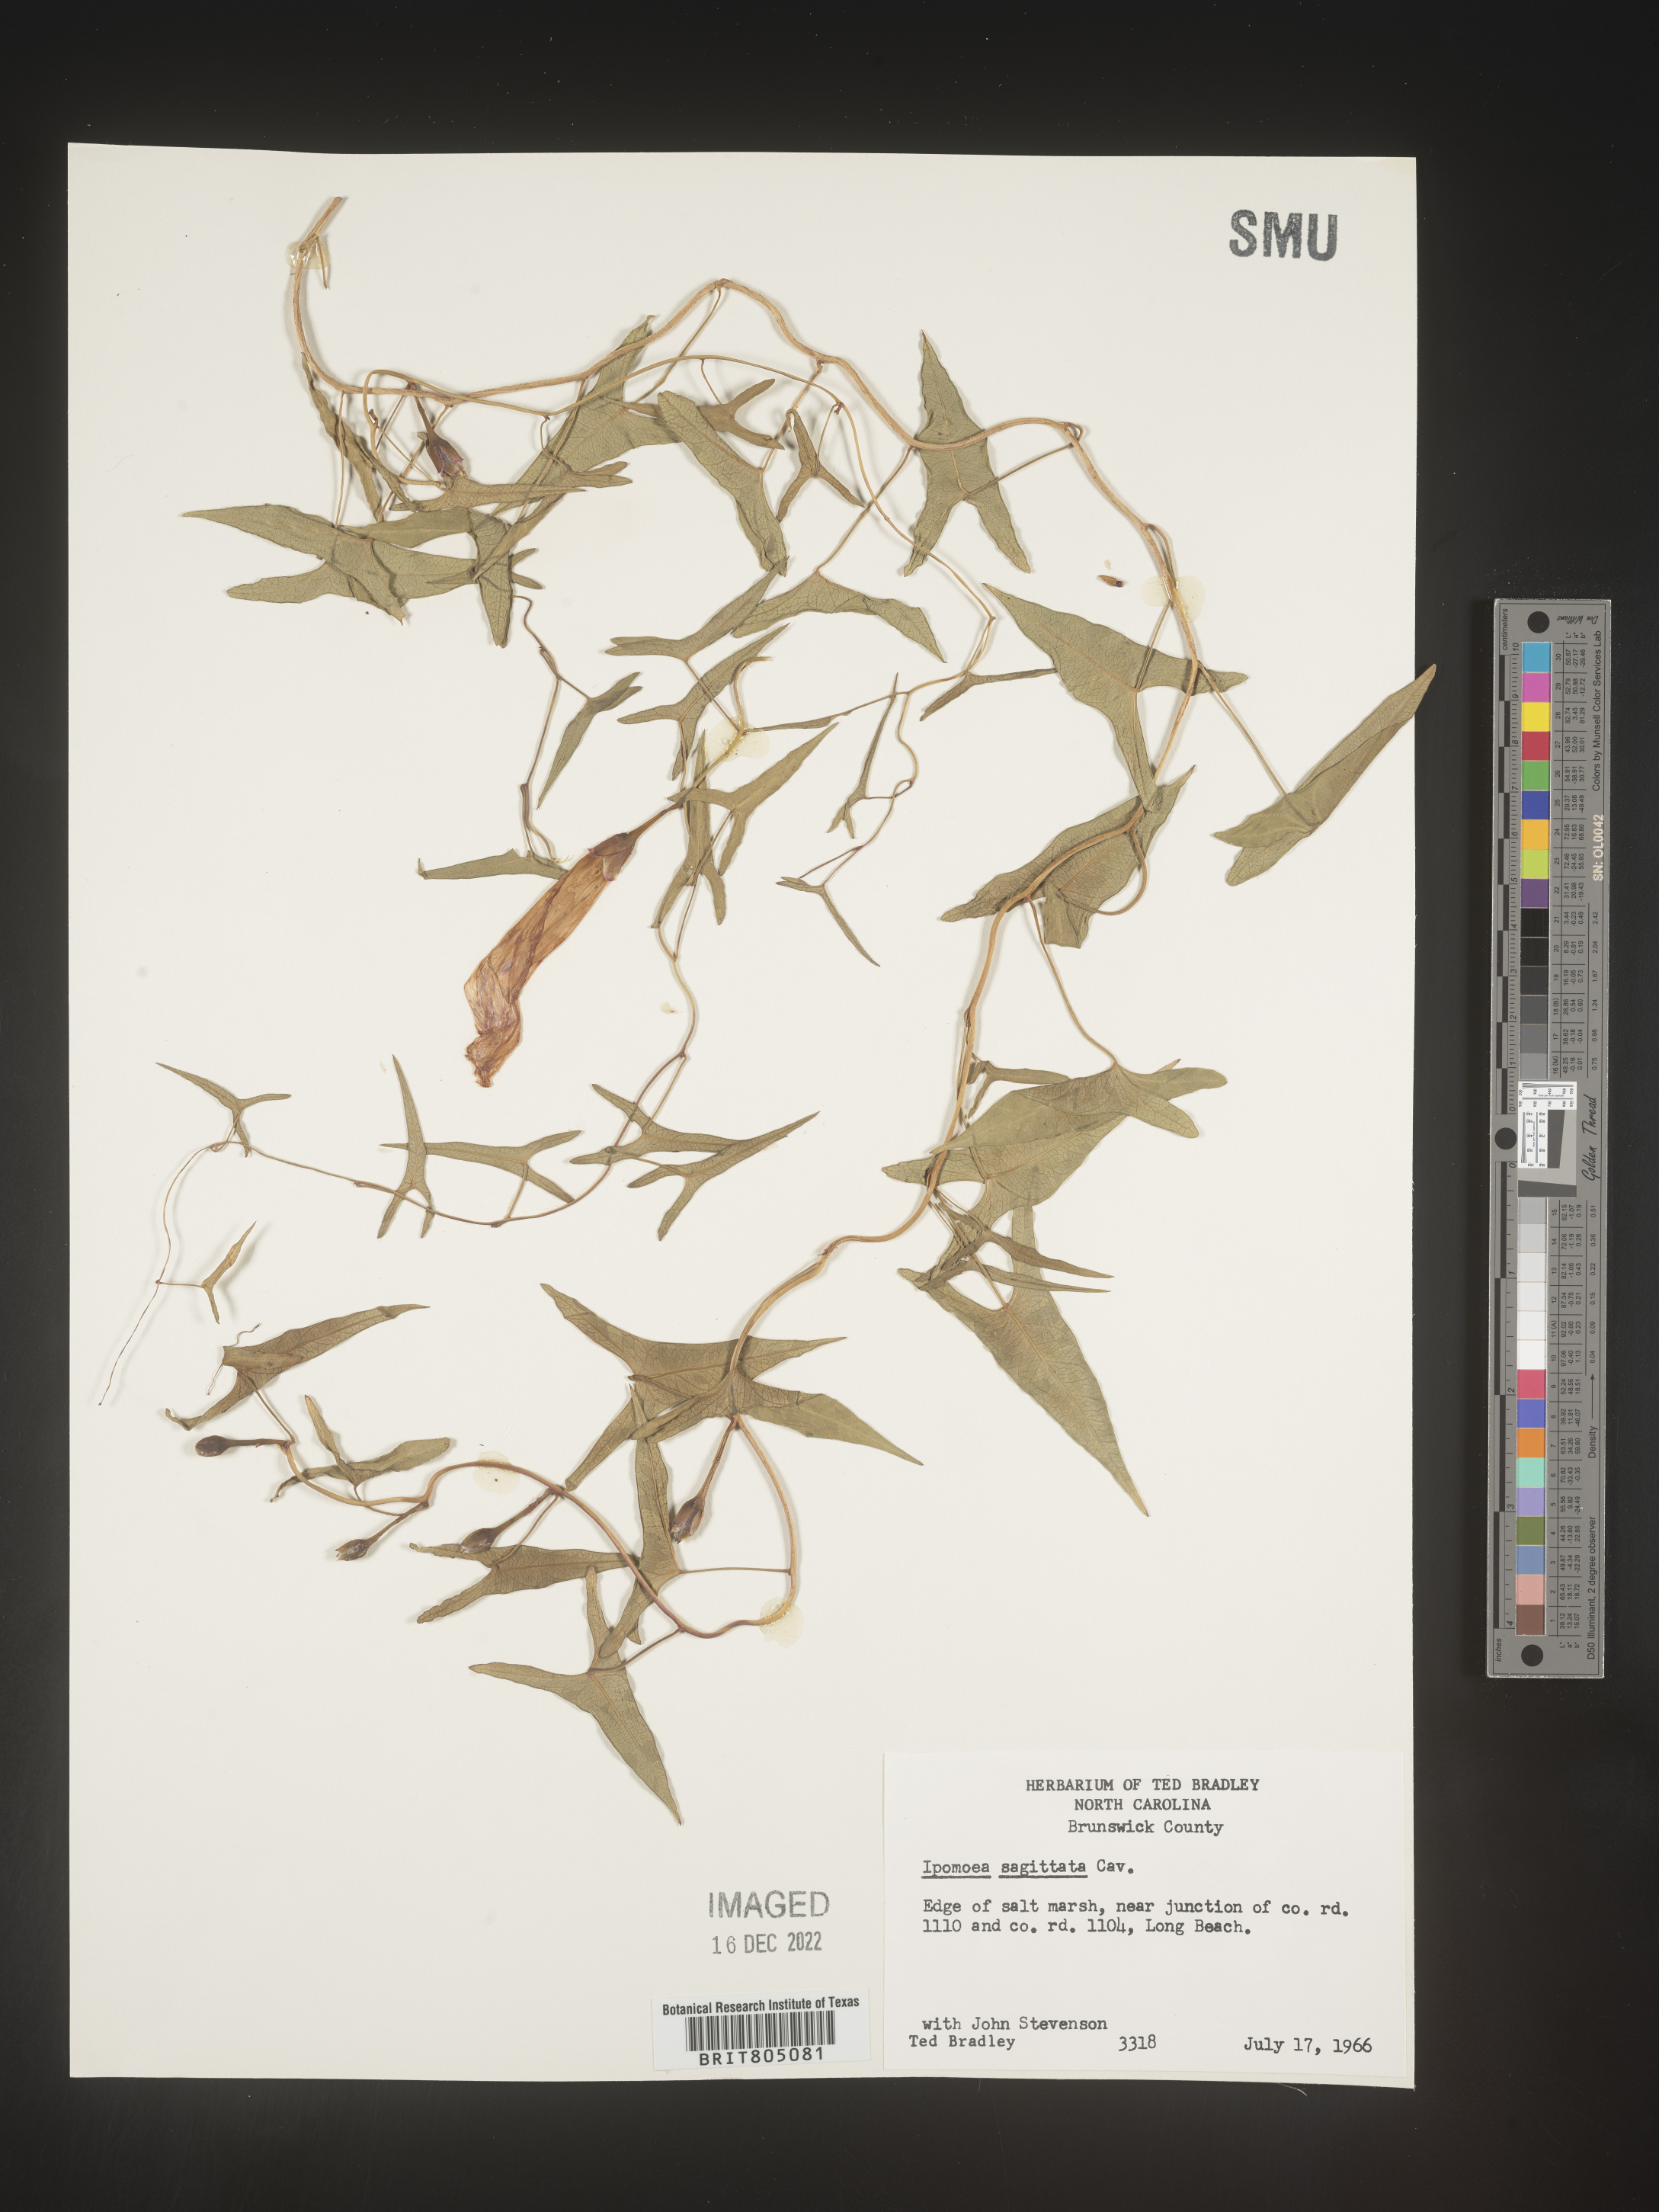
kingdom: Plantae
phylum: Tracheophyta
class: Magnoliopsida
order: Solanales
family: Convolvulaceae
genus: Ipomoea
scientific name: Ipomoea sinensis
